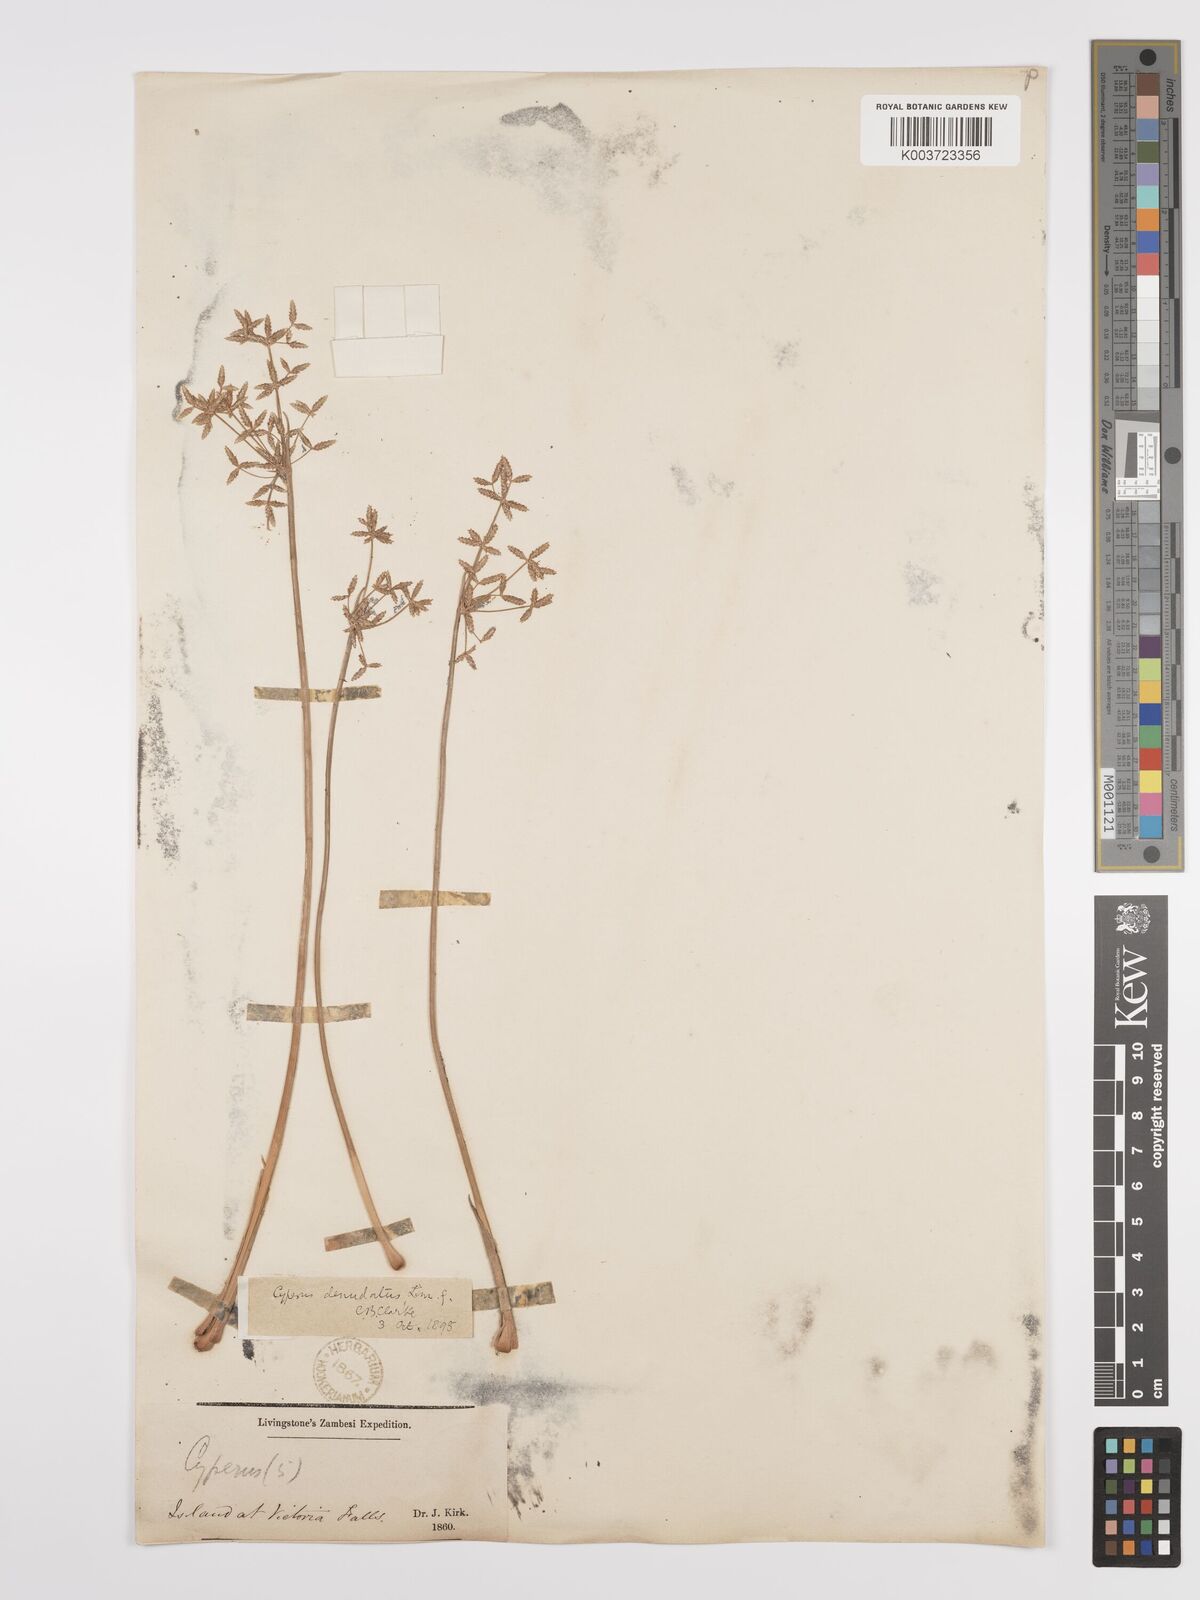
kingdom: Plantae
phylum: Tracheophyta
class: Liliopsida
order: Poales
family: Cyperaceae
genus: Cyperus
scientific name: Cyperus denudatus
